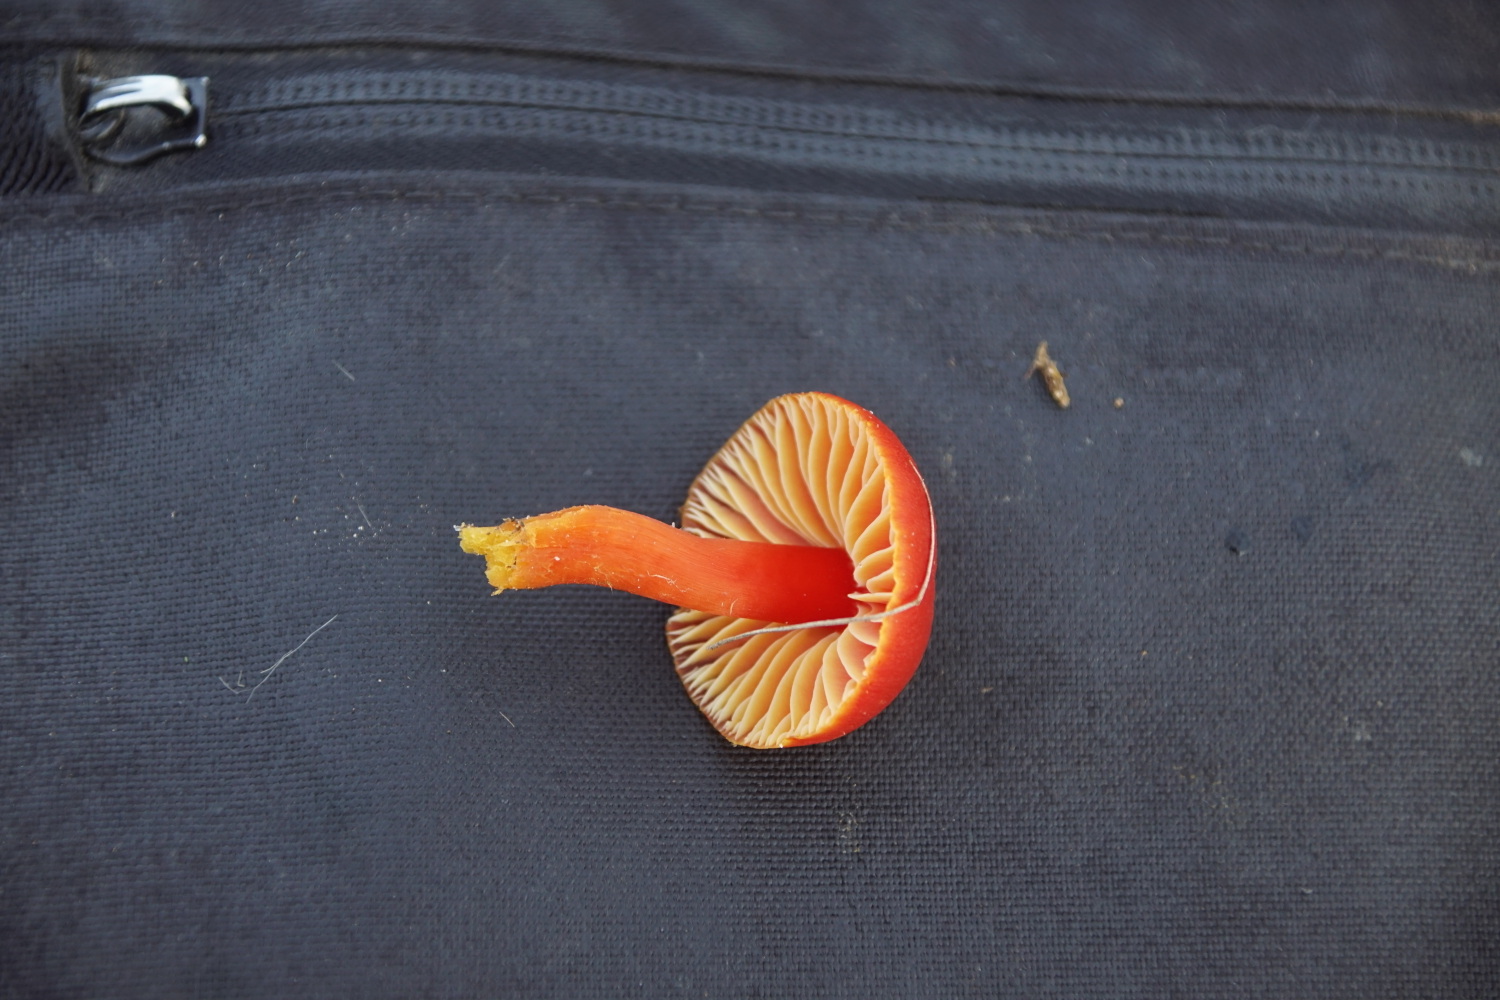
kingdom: Fungi
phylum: Basidiomycota
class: Agaricomycetes
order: Agaricales
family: Hygrophoraceae
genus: Hygrocybe
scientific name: Hygrocybe coccinea
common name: cinnober-vokshat
